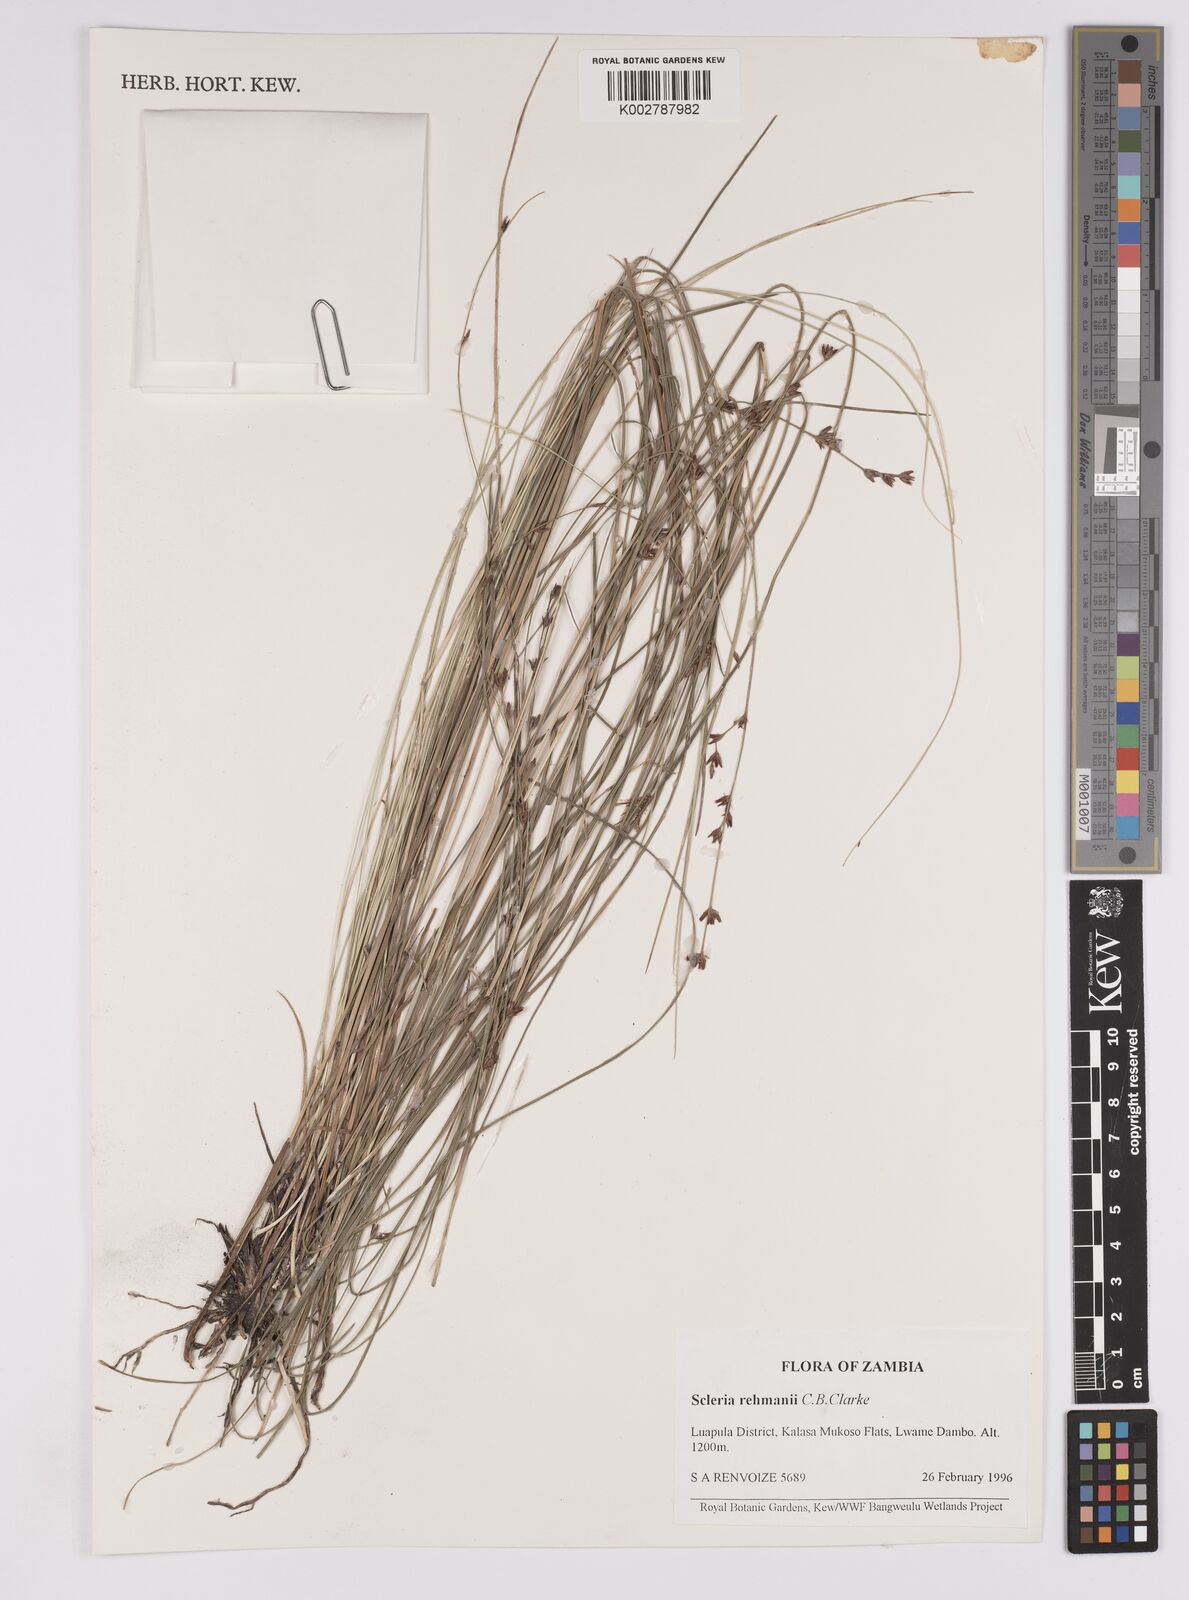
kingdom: Plantae
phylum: Tracheophyta
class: Liliopsida
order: Poales
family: Cyperaceae
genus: Scleria
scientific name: Scleria rehmannii
